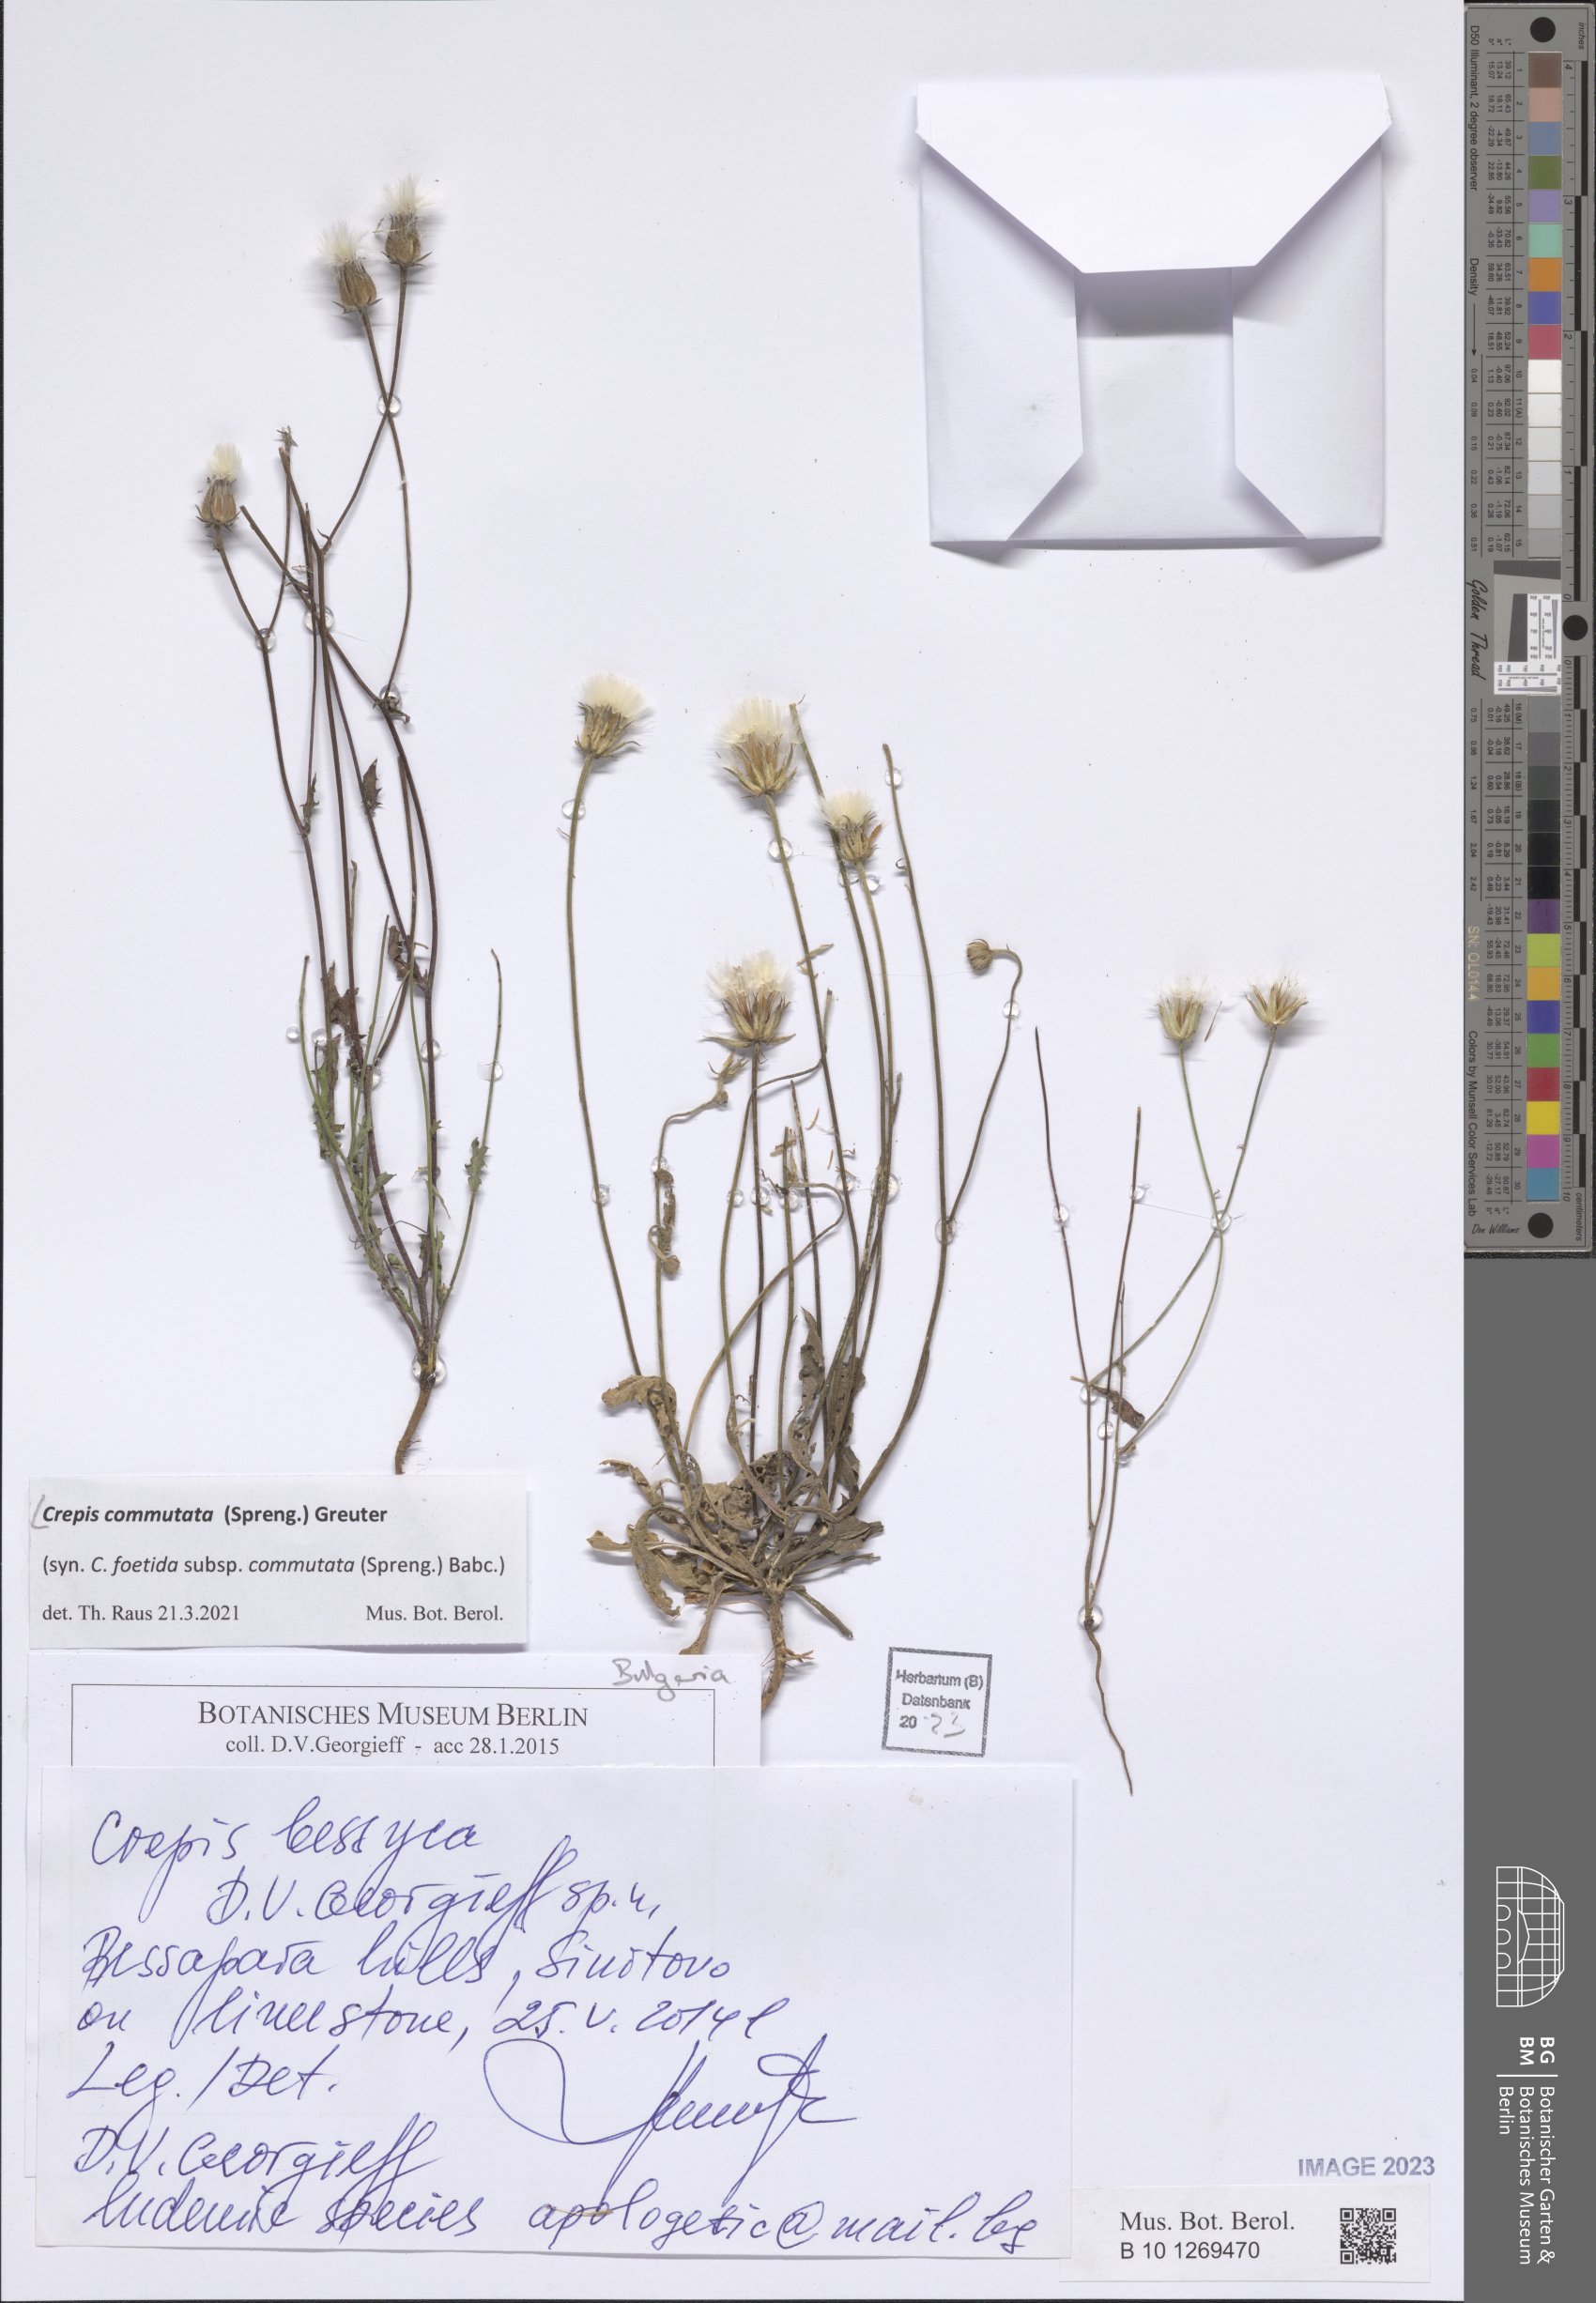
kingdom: Plantae
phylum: Tracheophyta
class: Magnoliopsida
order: Asterales
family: Asteraceae
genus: Crepis
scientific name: Crepis commutata
